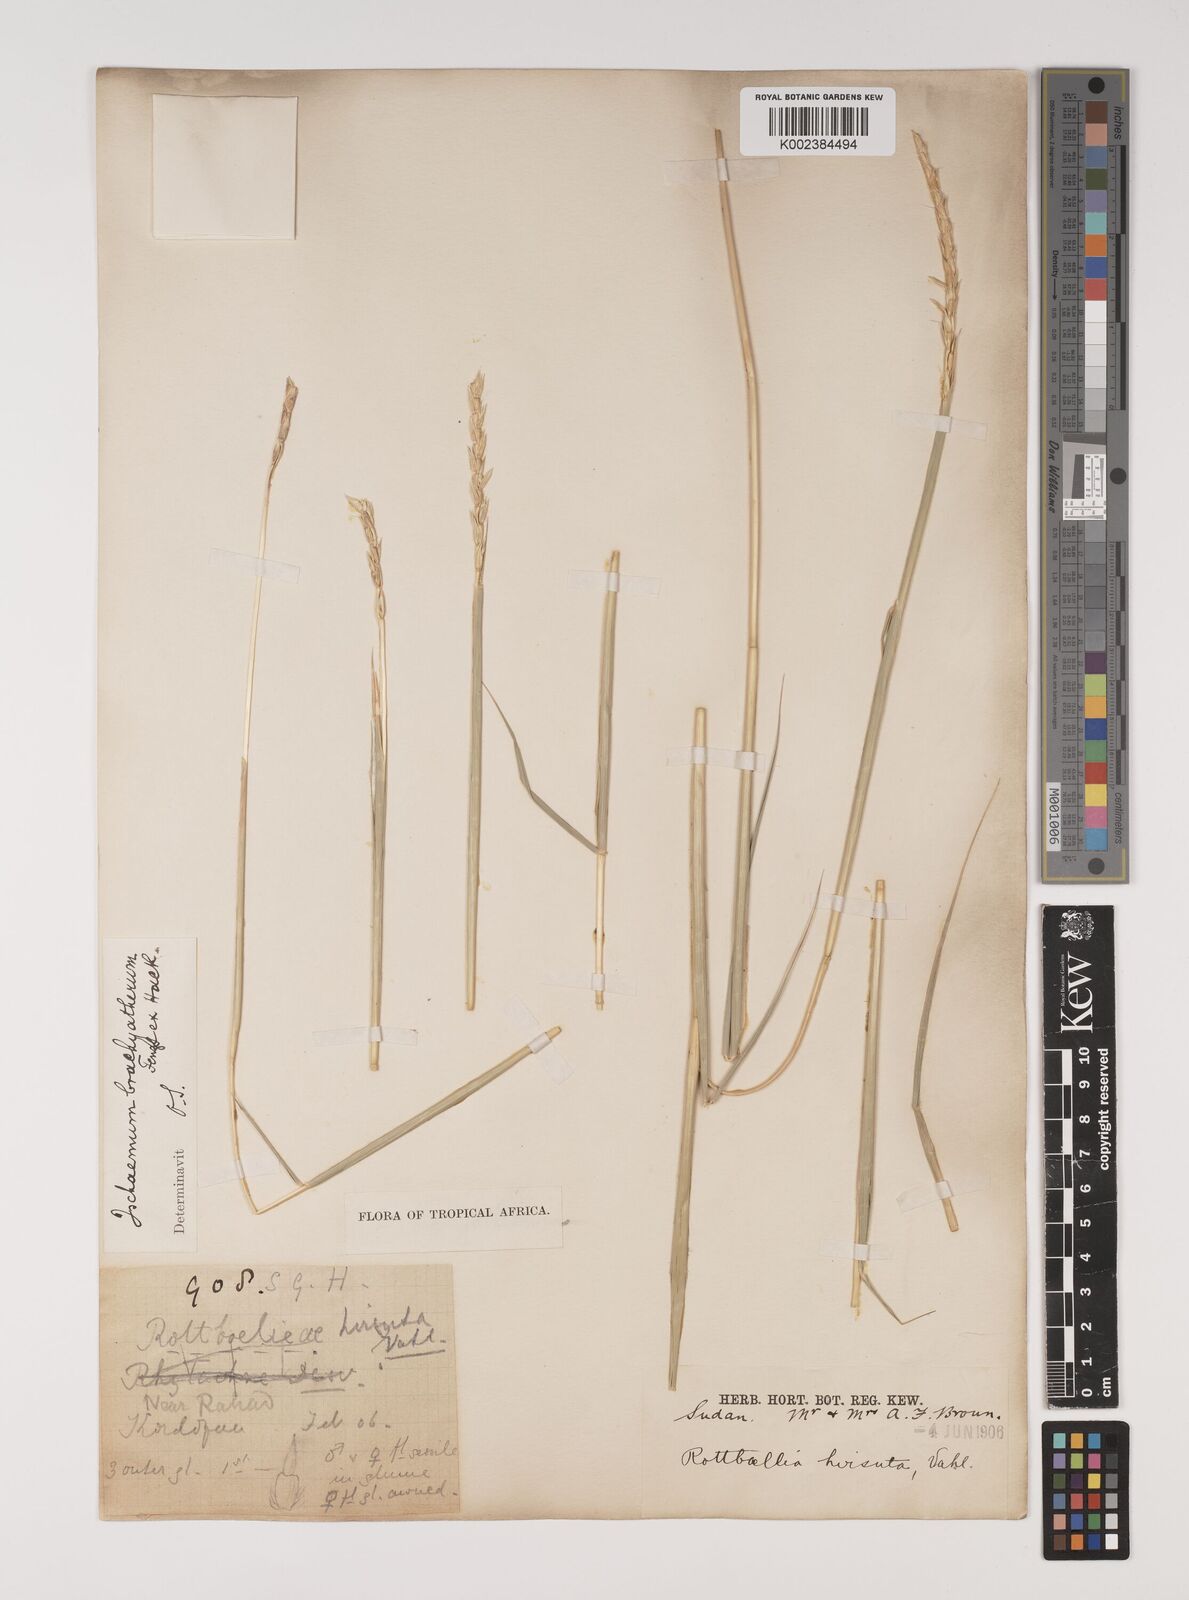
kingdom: Plantae
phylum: Tracheophyta
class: Liliopsida
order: Poales
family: Poaceae
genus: Ischaemum
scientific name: Ischaemum afrum
